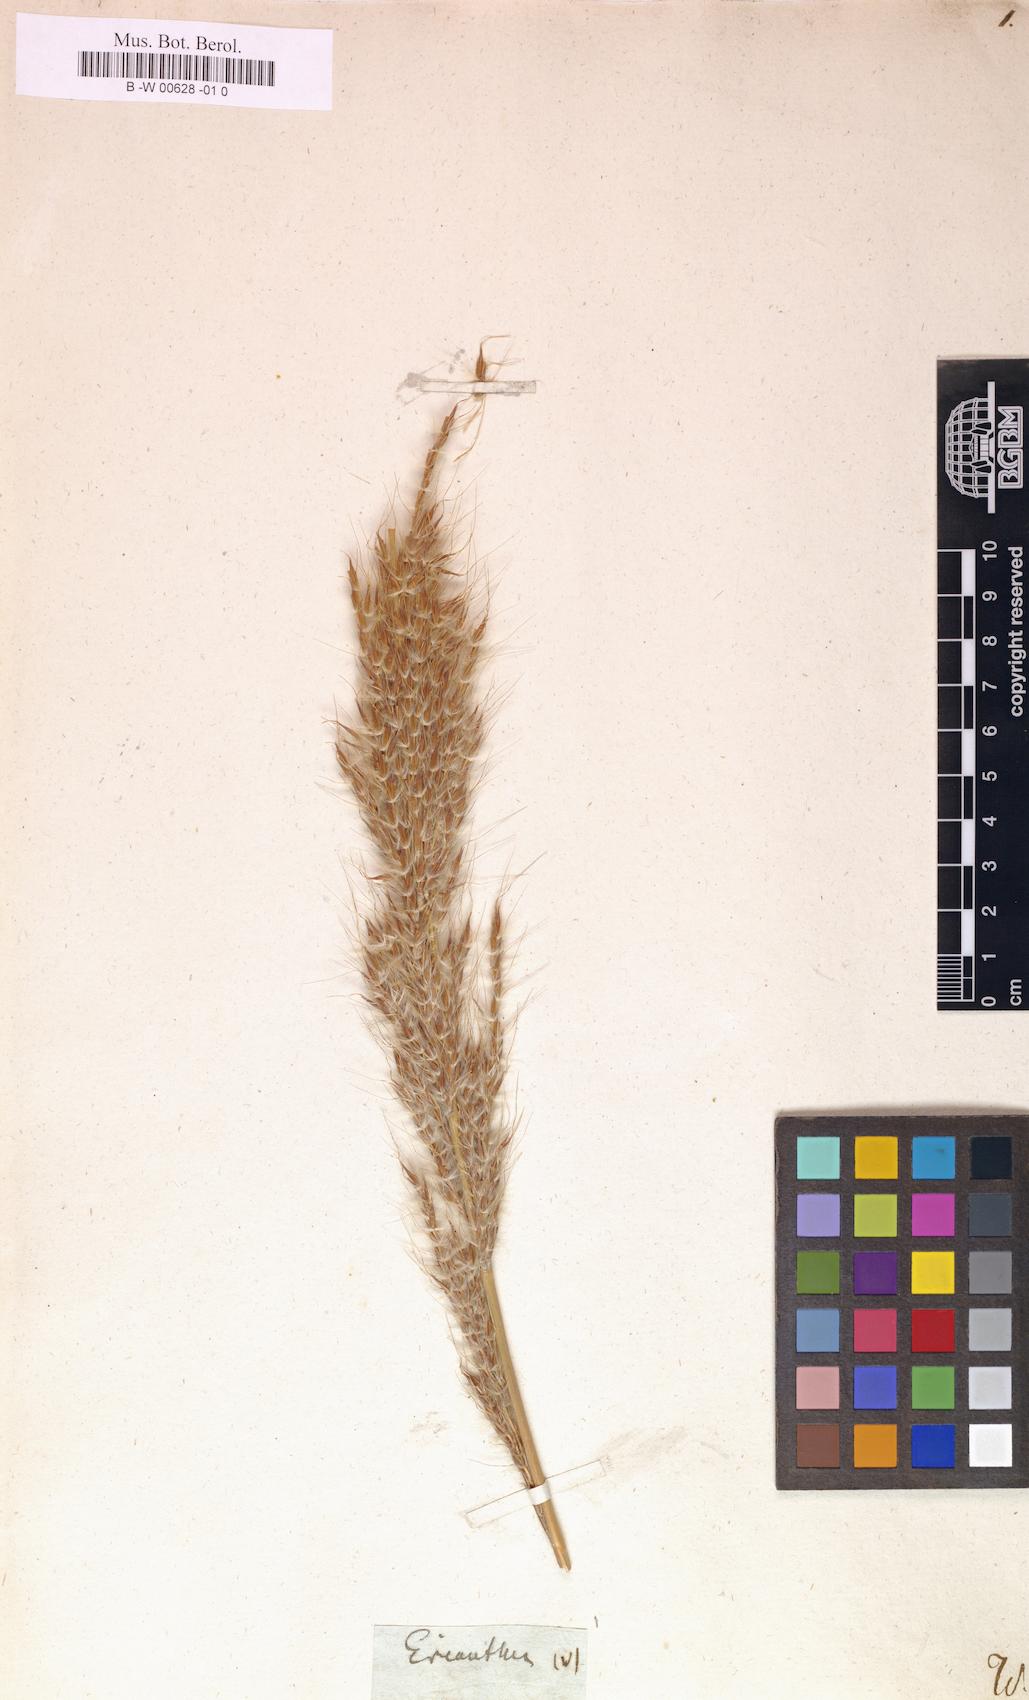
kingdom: Plantae
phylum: Tracheophyta
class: Liliopsida
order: Poales
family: Poaceae
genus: Erianthus
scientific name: Erianthus
